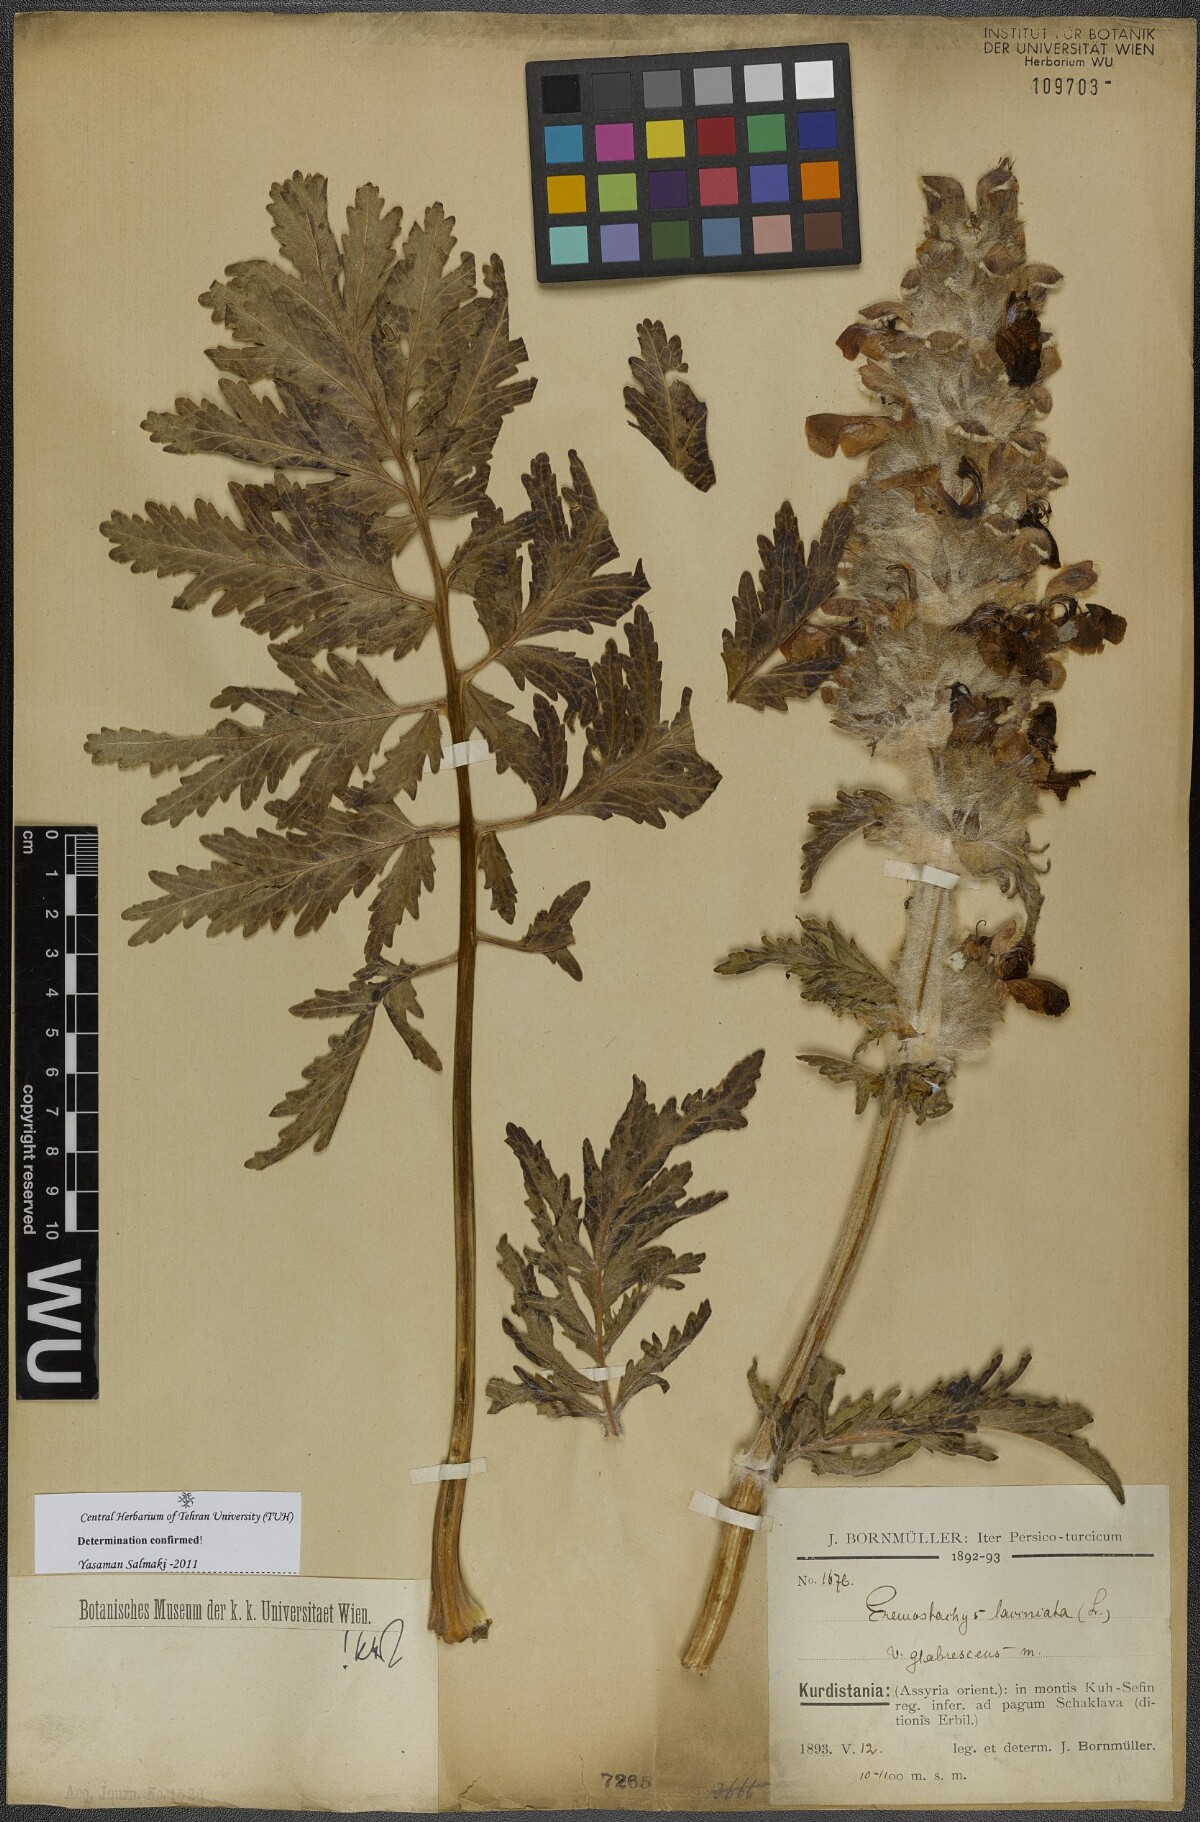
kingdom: Plantae
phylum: Tracheophyta
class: Magnoliopsida
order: Lamiales
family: Lamiaceae
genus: Phlomoides
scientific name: Phlomoides laciniata
